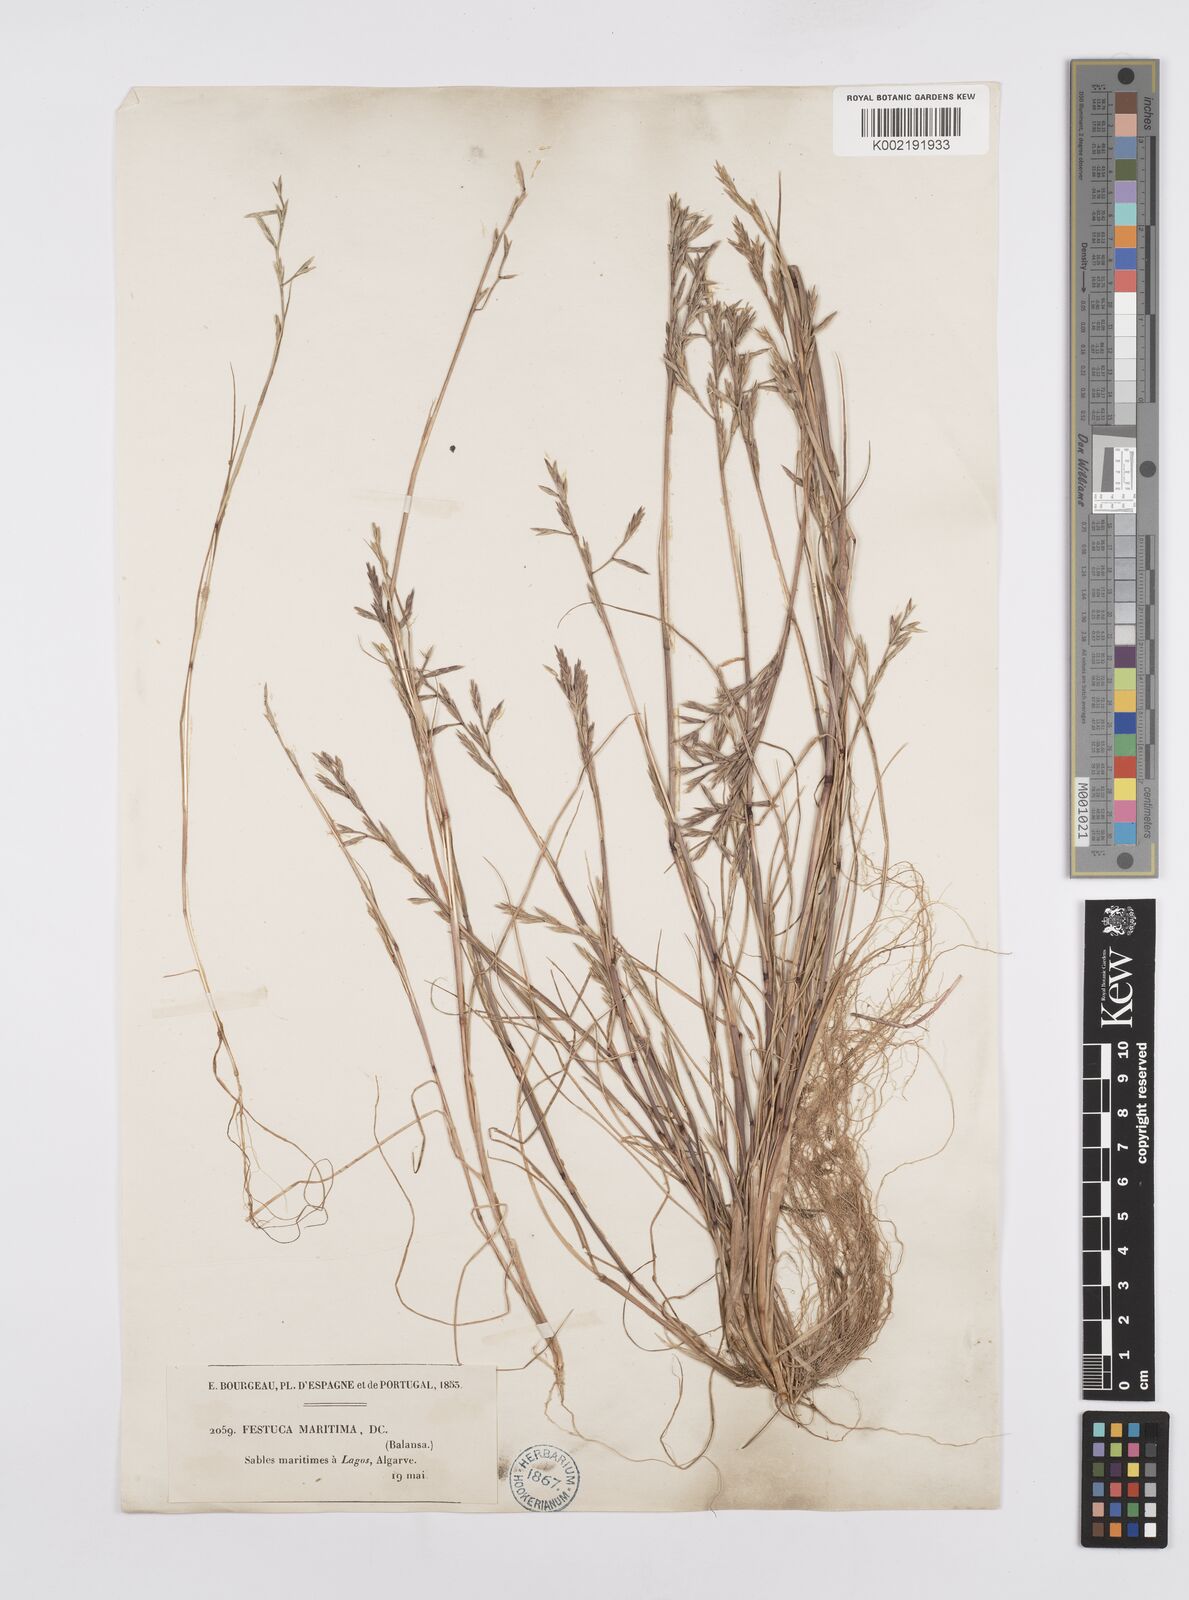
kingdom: Plantae
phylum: Tracheophyta
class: Liliopsida
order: Poales
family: Poaceae
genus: Cutandia
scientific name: Cutandia maritima
